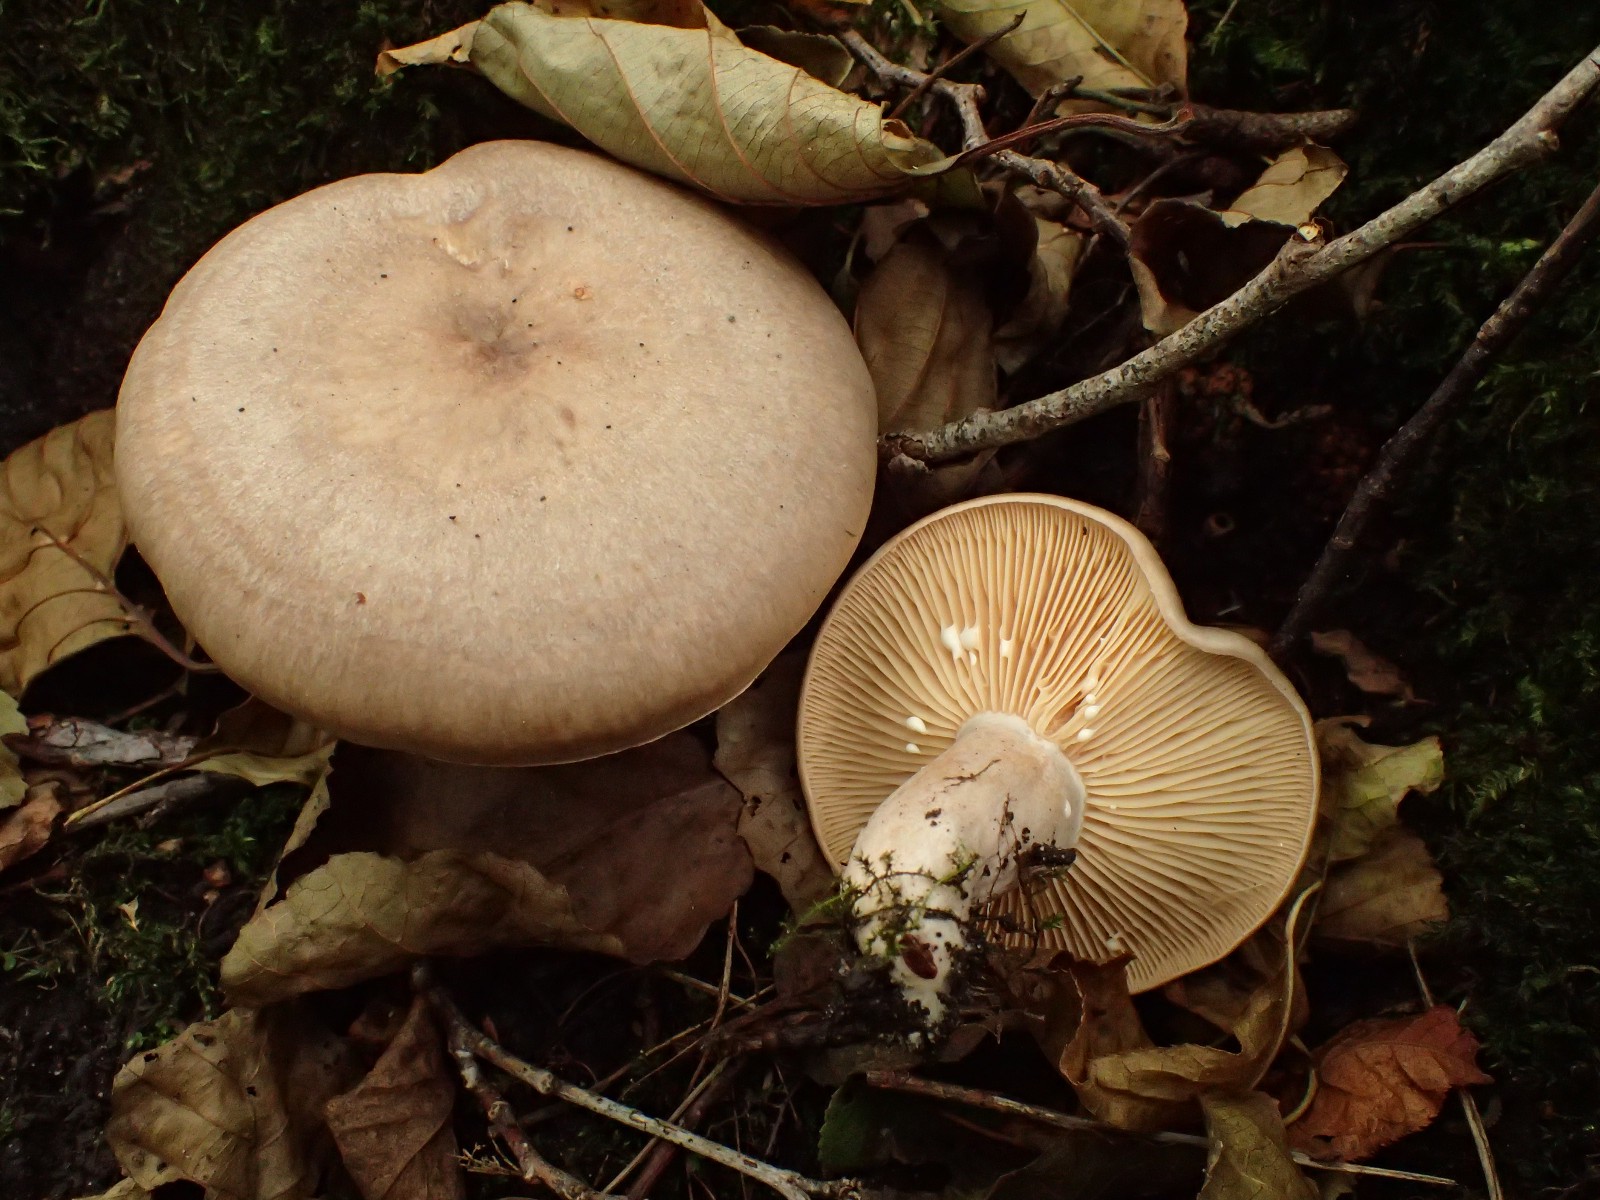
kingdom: Fungi
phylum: Basidiomycota
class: Agaricomycetes
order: Russulales
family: Russulaceae
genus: Lactarius
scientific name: Lactarius pyrogalus
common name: hassel-mælkehat
